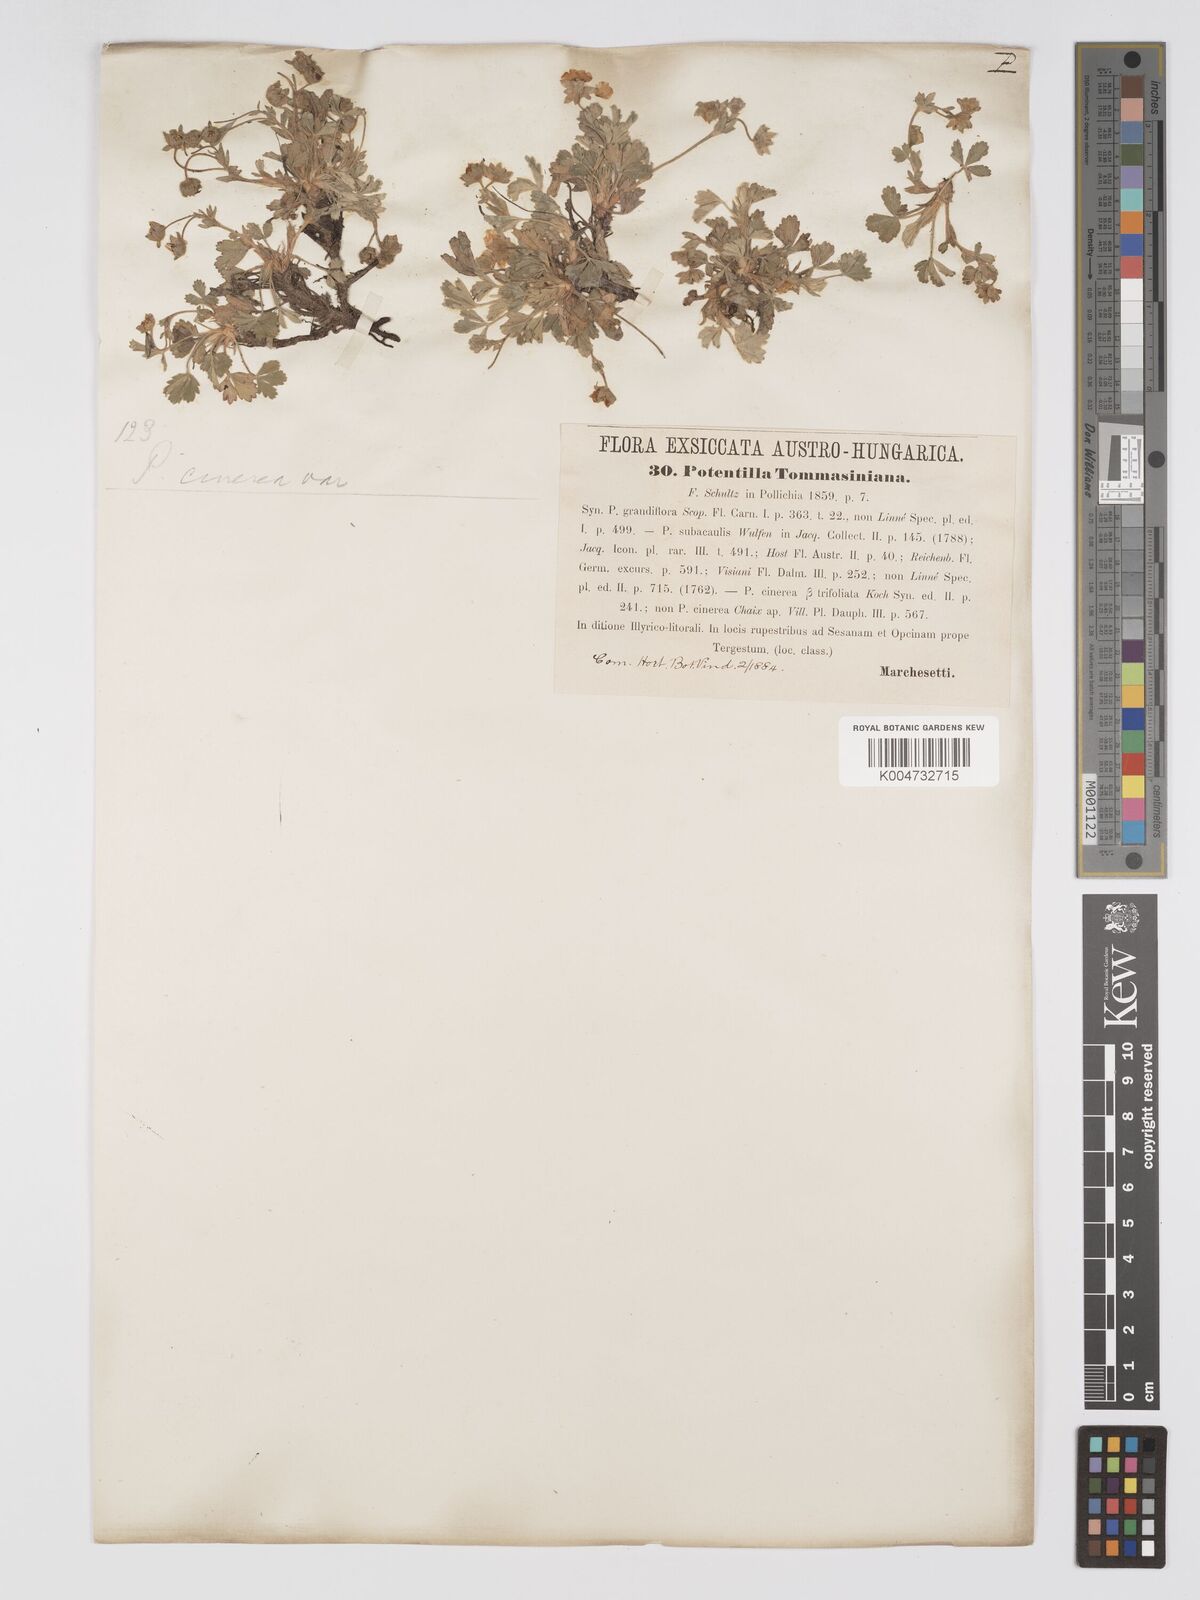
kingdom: Plantae
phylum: Tracheophyta
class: Magnoliopsida
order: Rosales
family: Rosaceae
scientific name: Rosaceae
